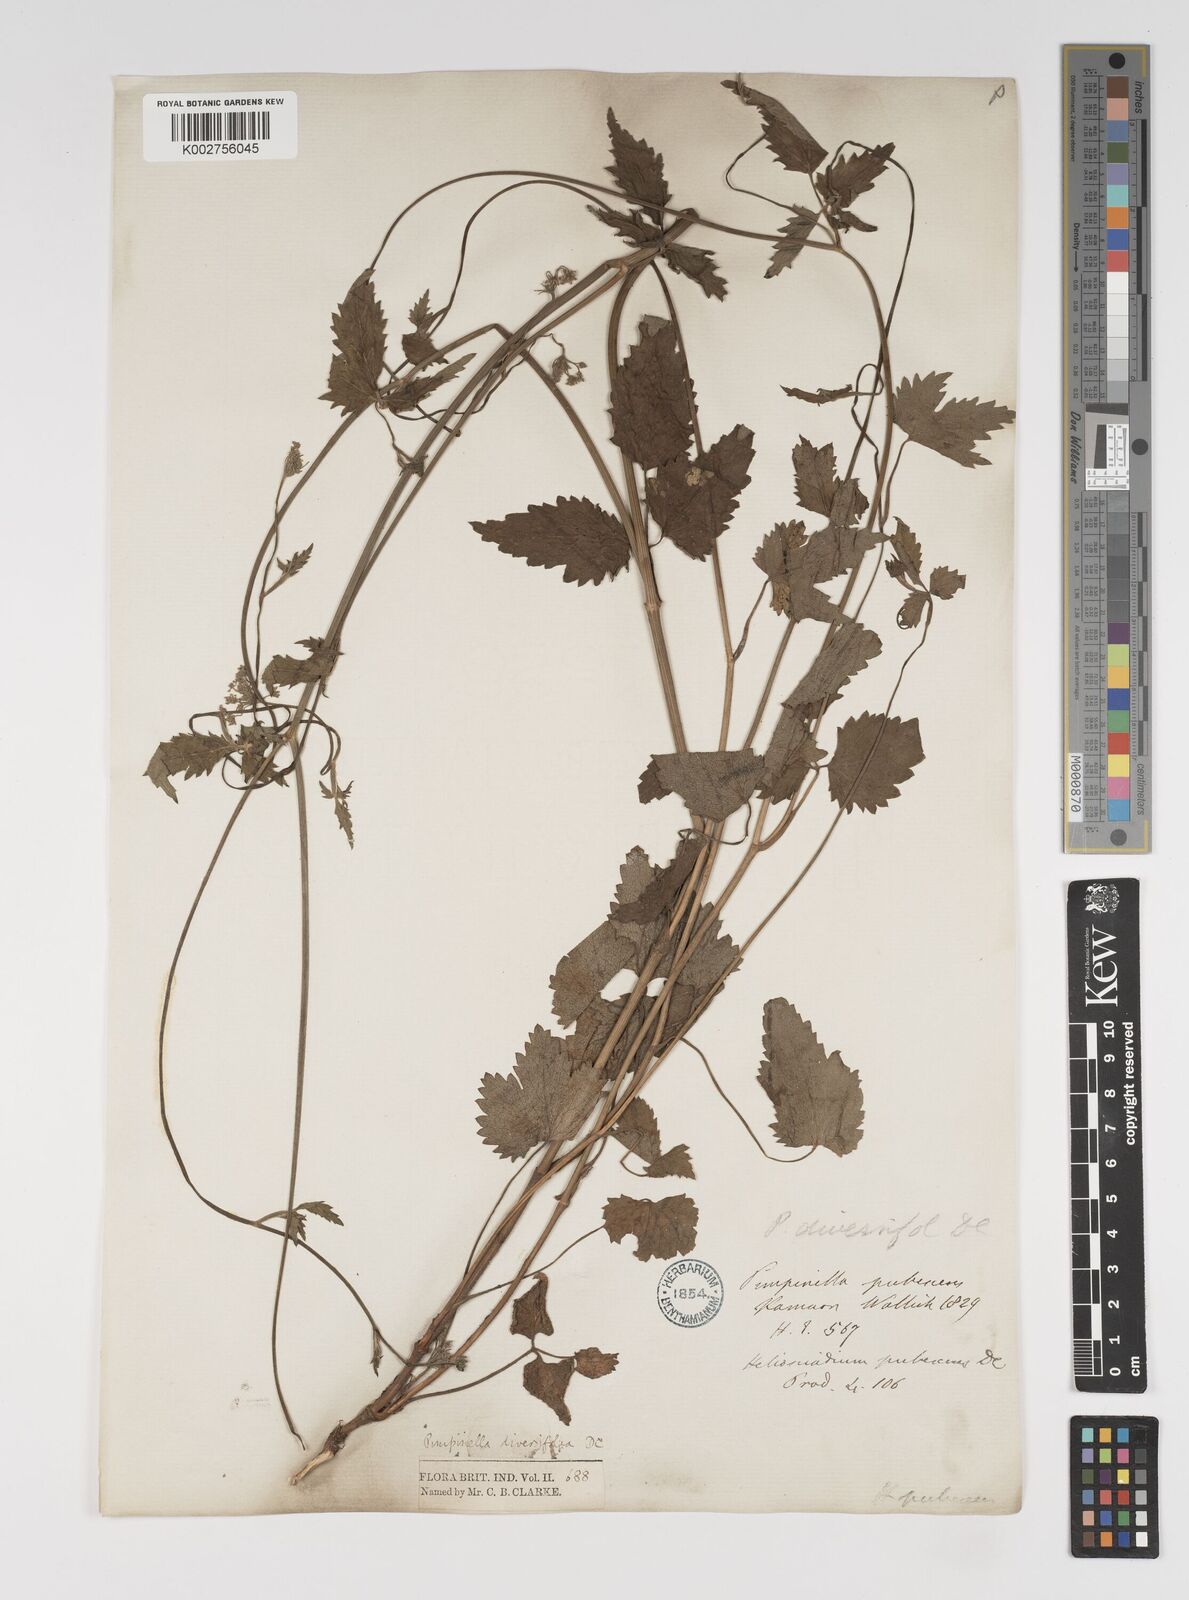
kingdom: Plantae
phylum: Tracheophyta
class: Magnoliopsida
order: Apiales
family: Apiaceae
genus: Pimpinella
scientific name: Pimpinella diversifolia
